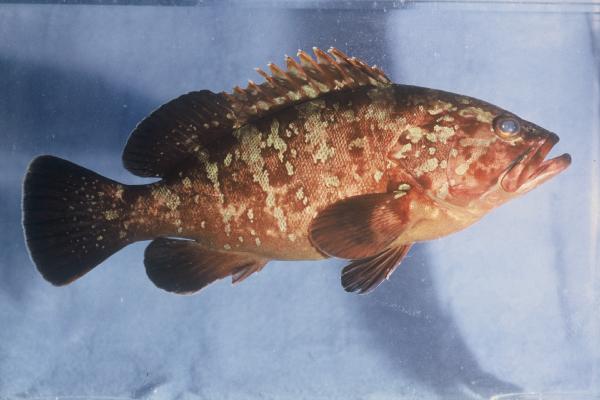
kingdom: Animalia
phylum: Chordata
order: Perciformes
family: Serranidae
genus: Serranus
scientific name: Serranus atricauda
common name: Blacktail comber
